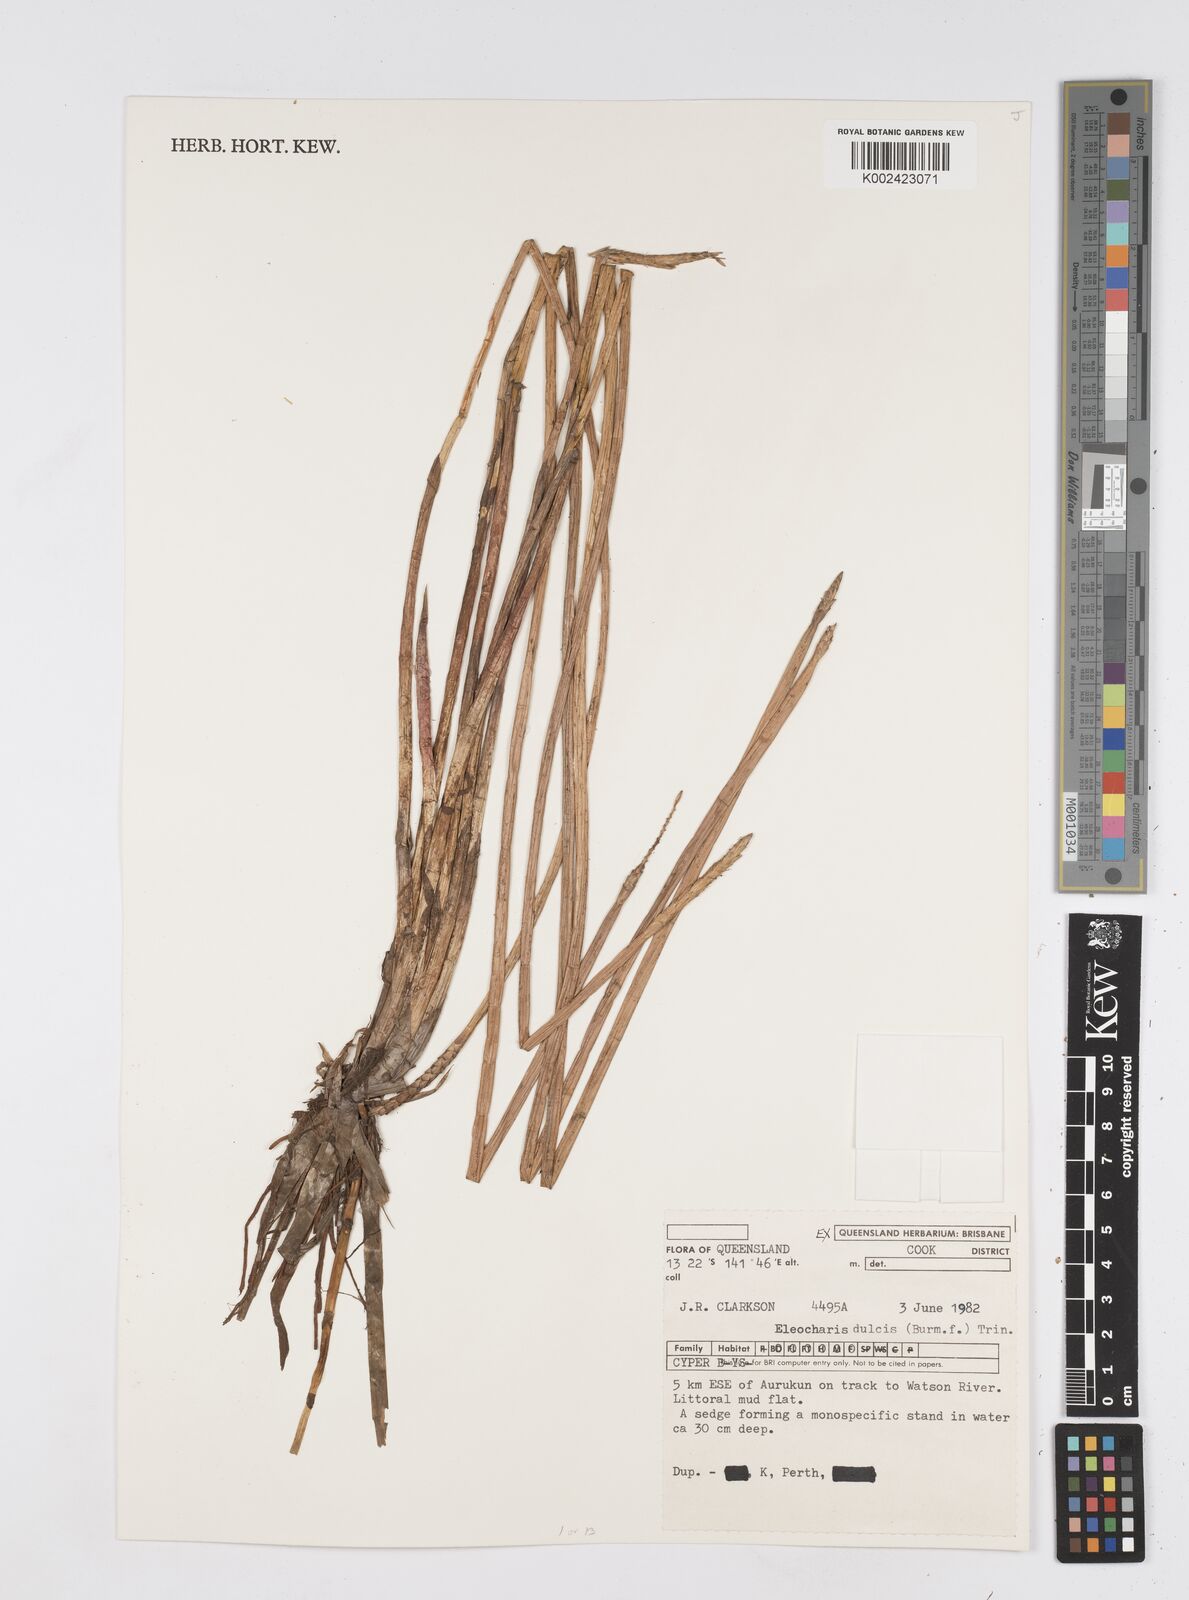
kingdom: Plantae
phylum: Tracheophyta
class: Liliopsida
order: Poales
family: Cyperaceae
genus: Eleocharis
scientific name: Eleocharis dulcis
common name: Chinese water chestnut
